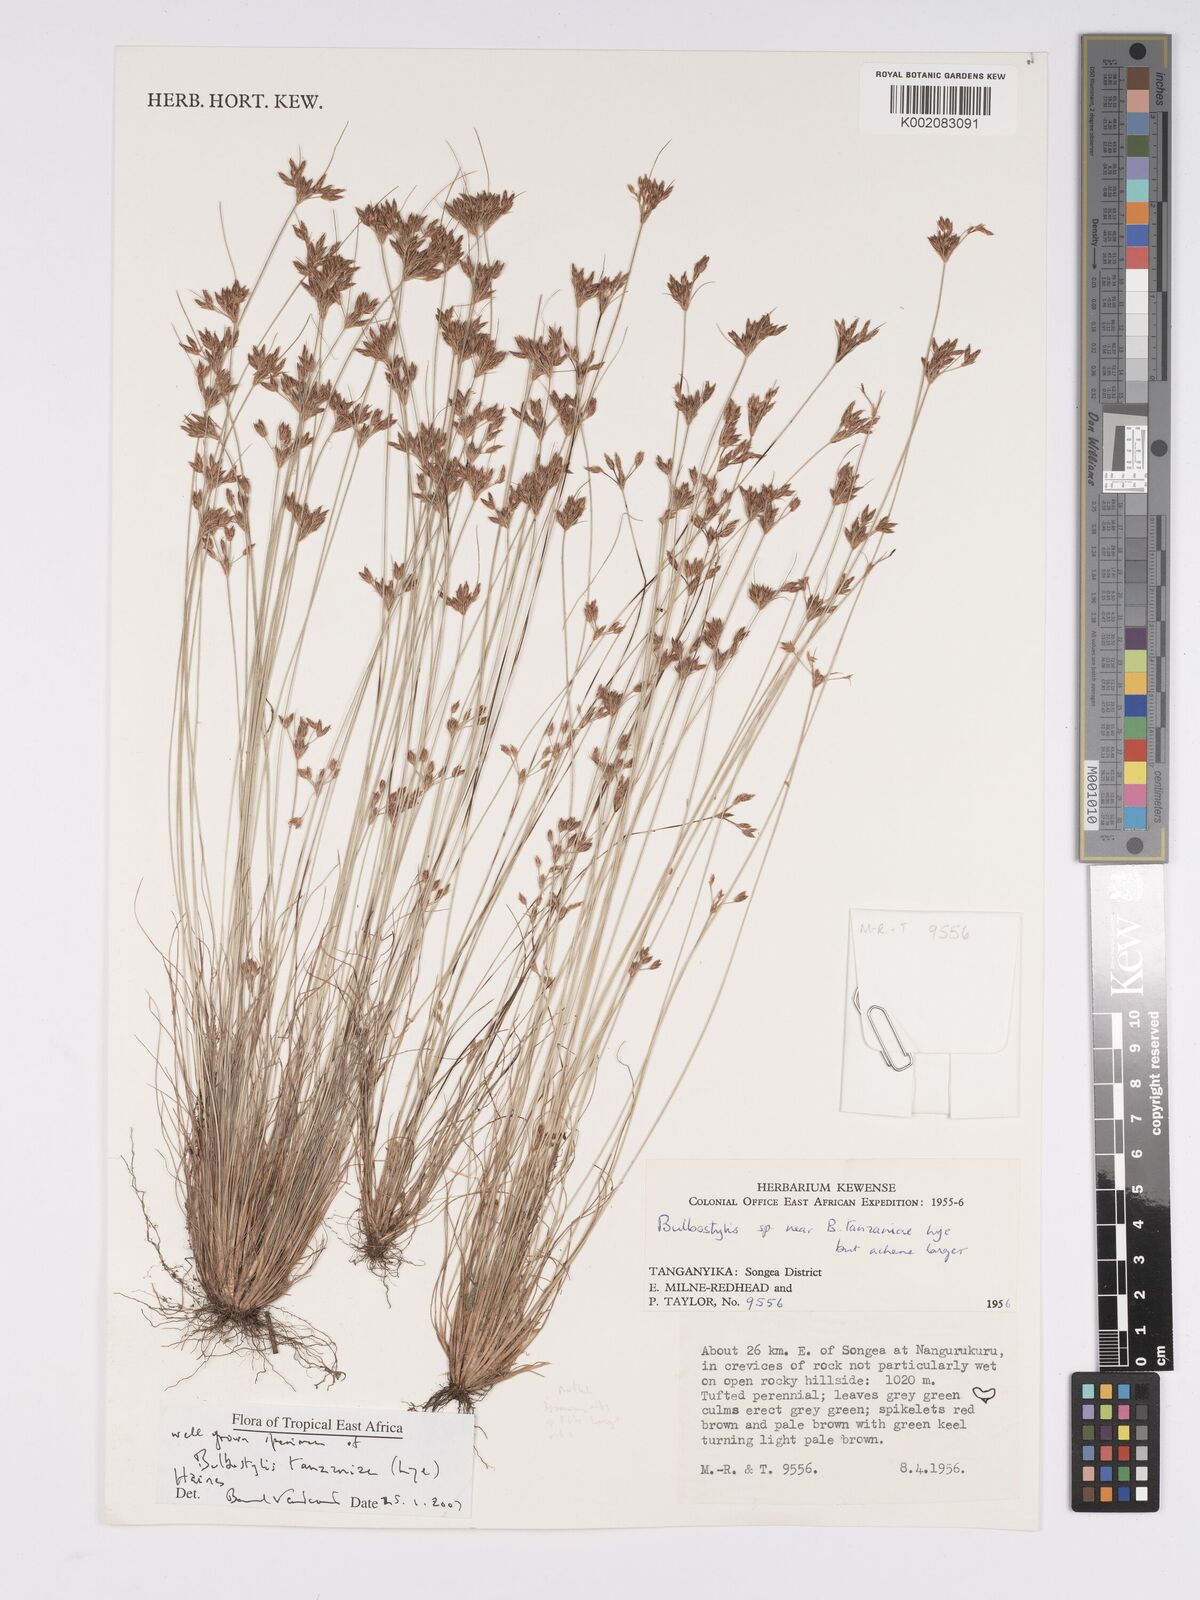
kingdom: Plantae
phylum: Tracheophyta
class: Liliopsida
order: Poales
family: Cyperaceae
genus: Bulbostylis
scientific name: Bulbostylis tanzaniae
